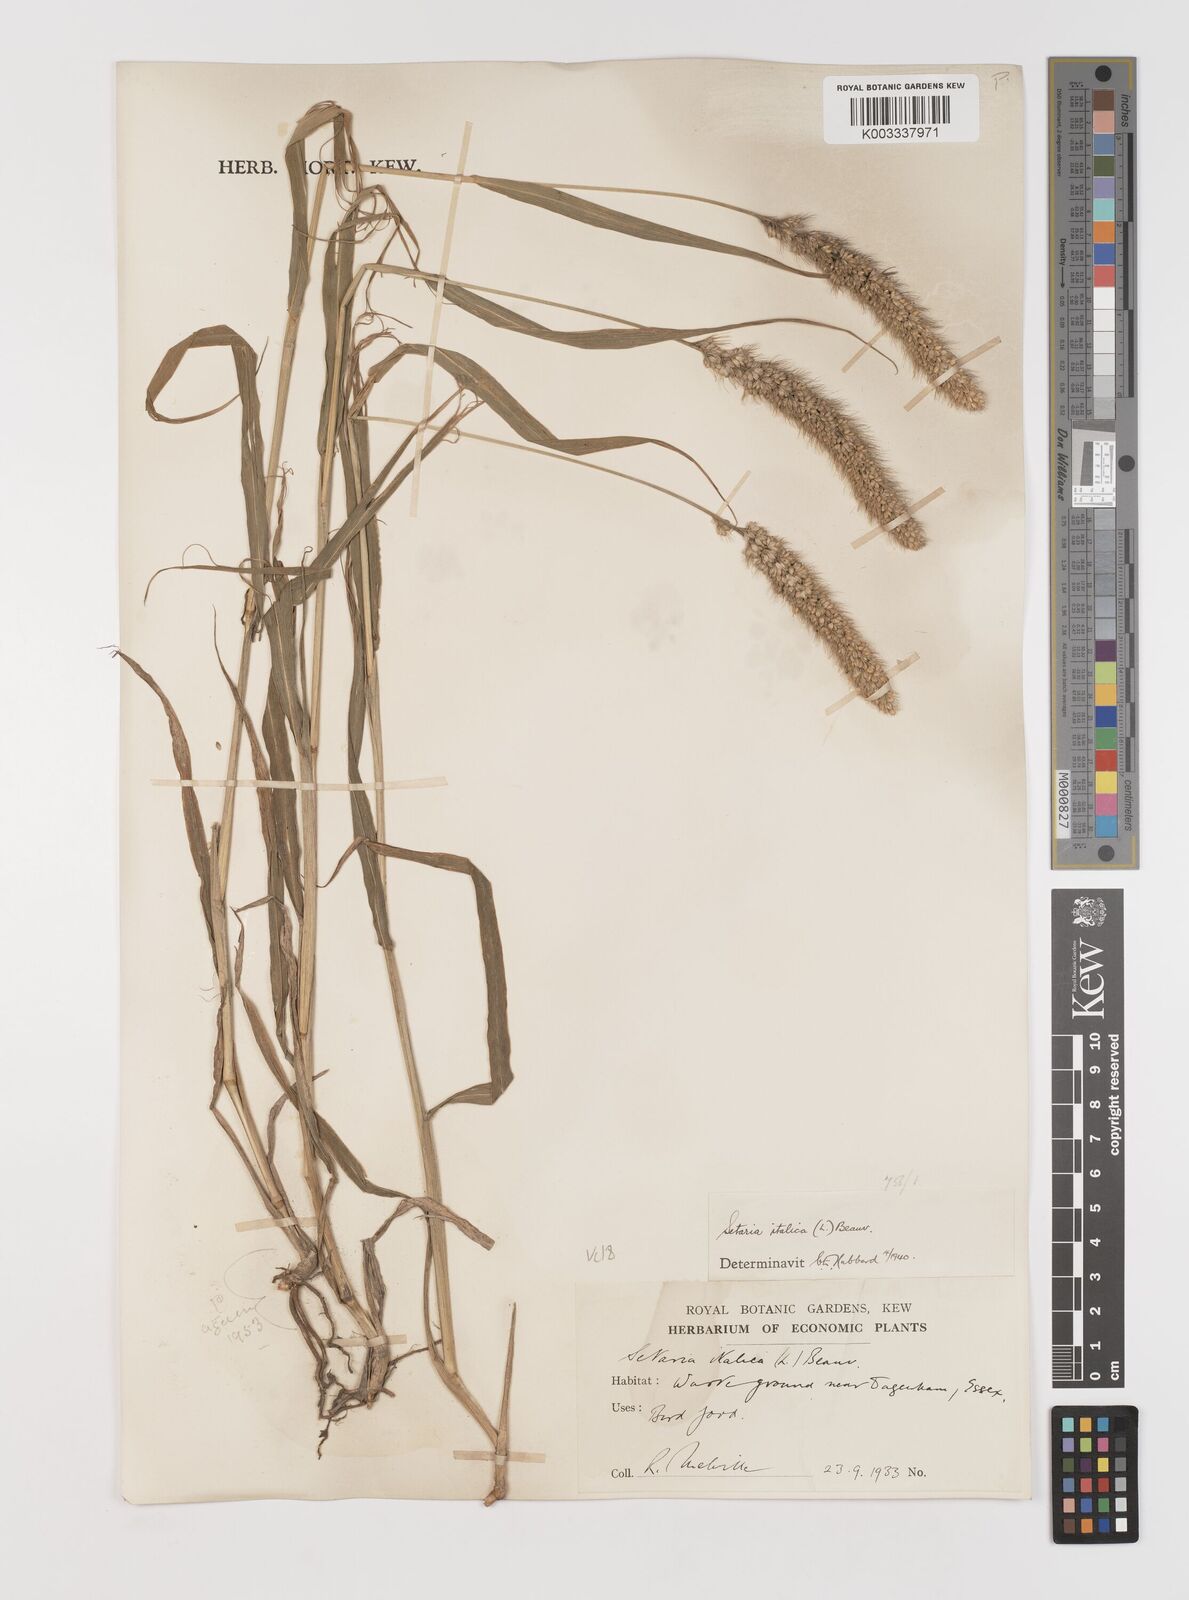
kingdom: Plantae
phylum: Tracheophyta
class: Liliopsida
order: Poales
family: Poaceae
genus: Setaria
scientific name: Setaria italica
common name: Foxtail bristle-grass
